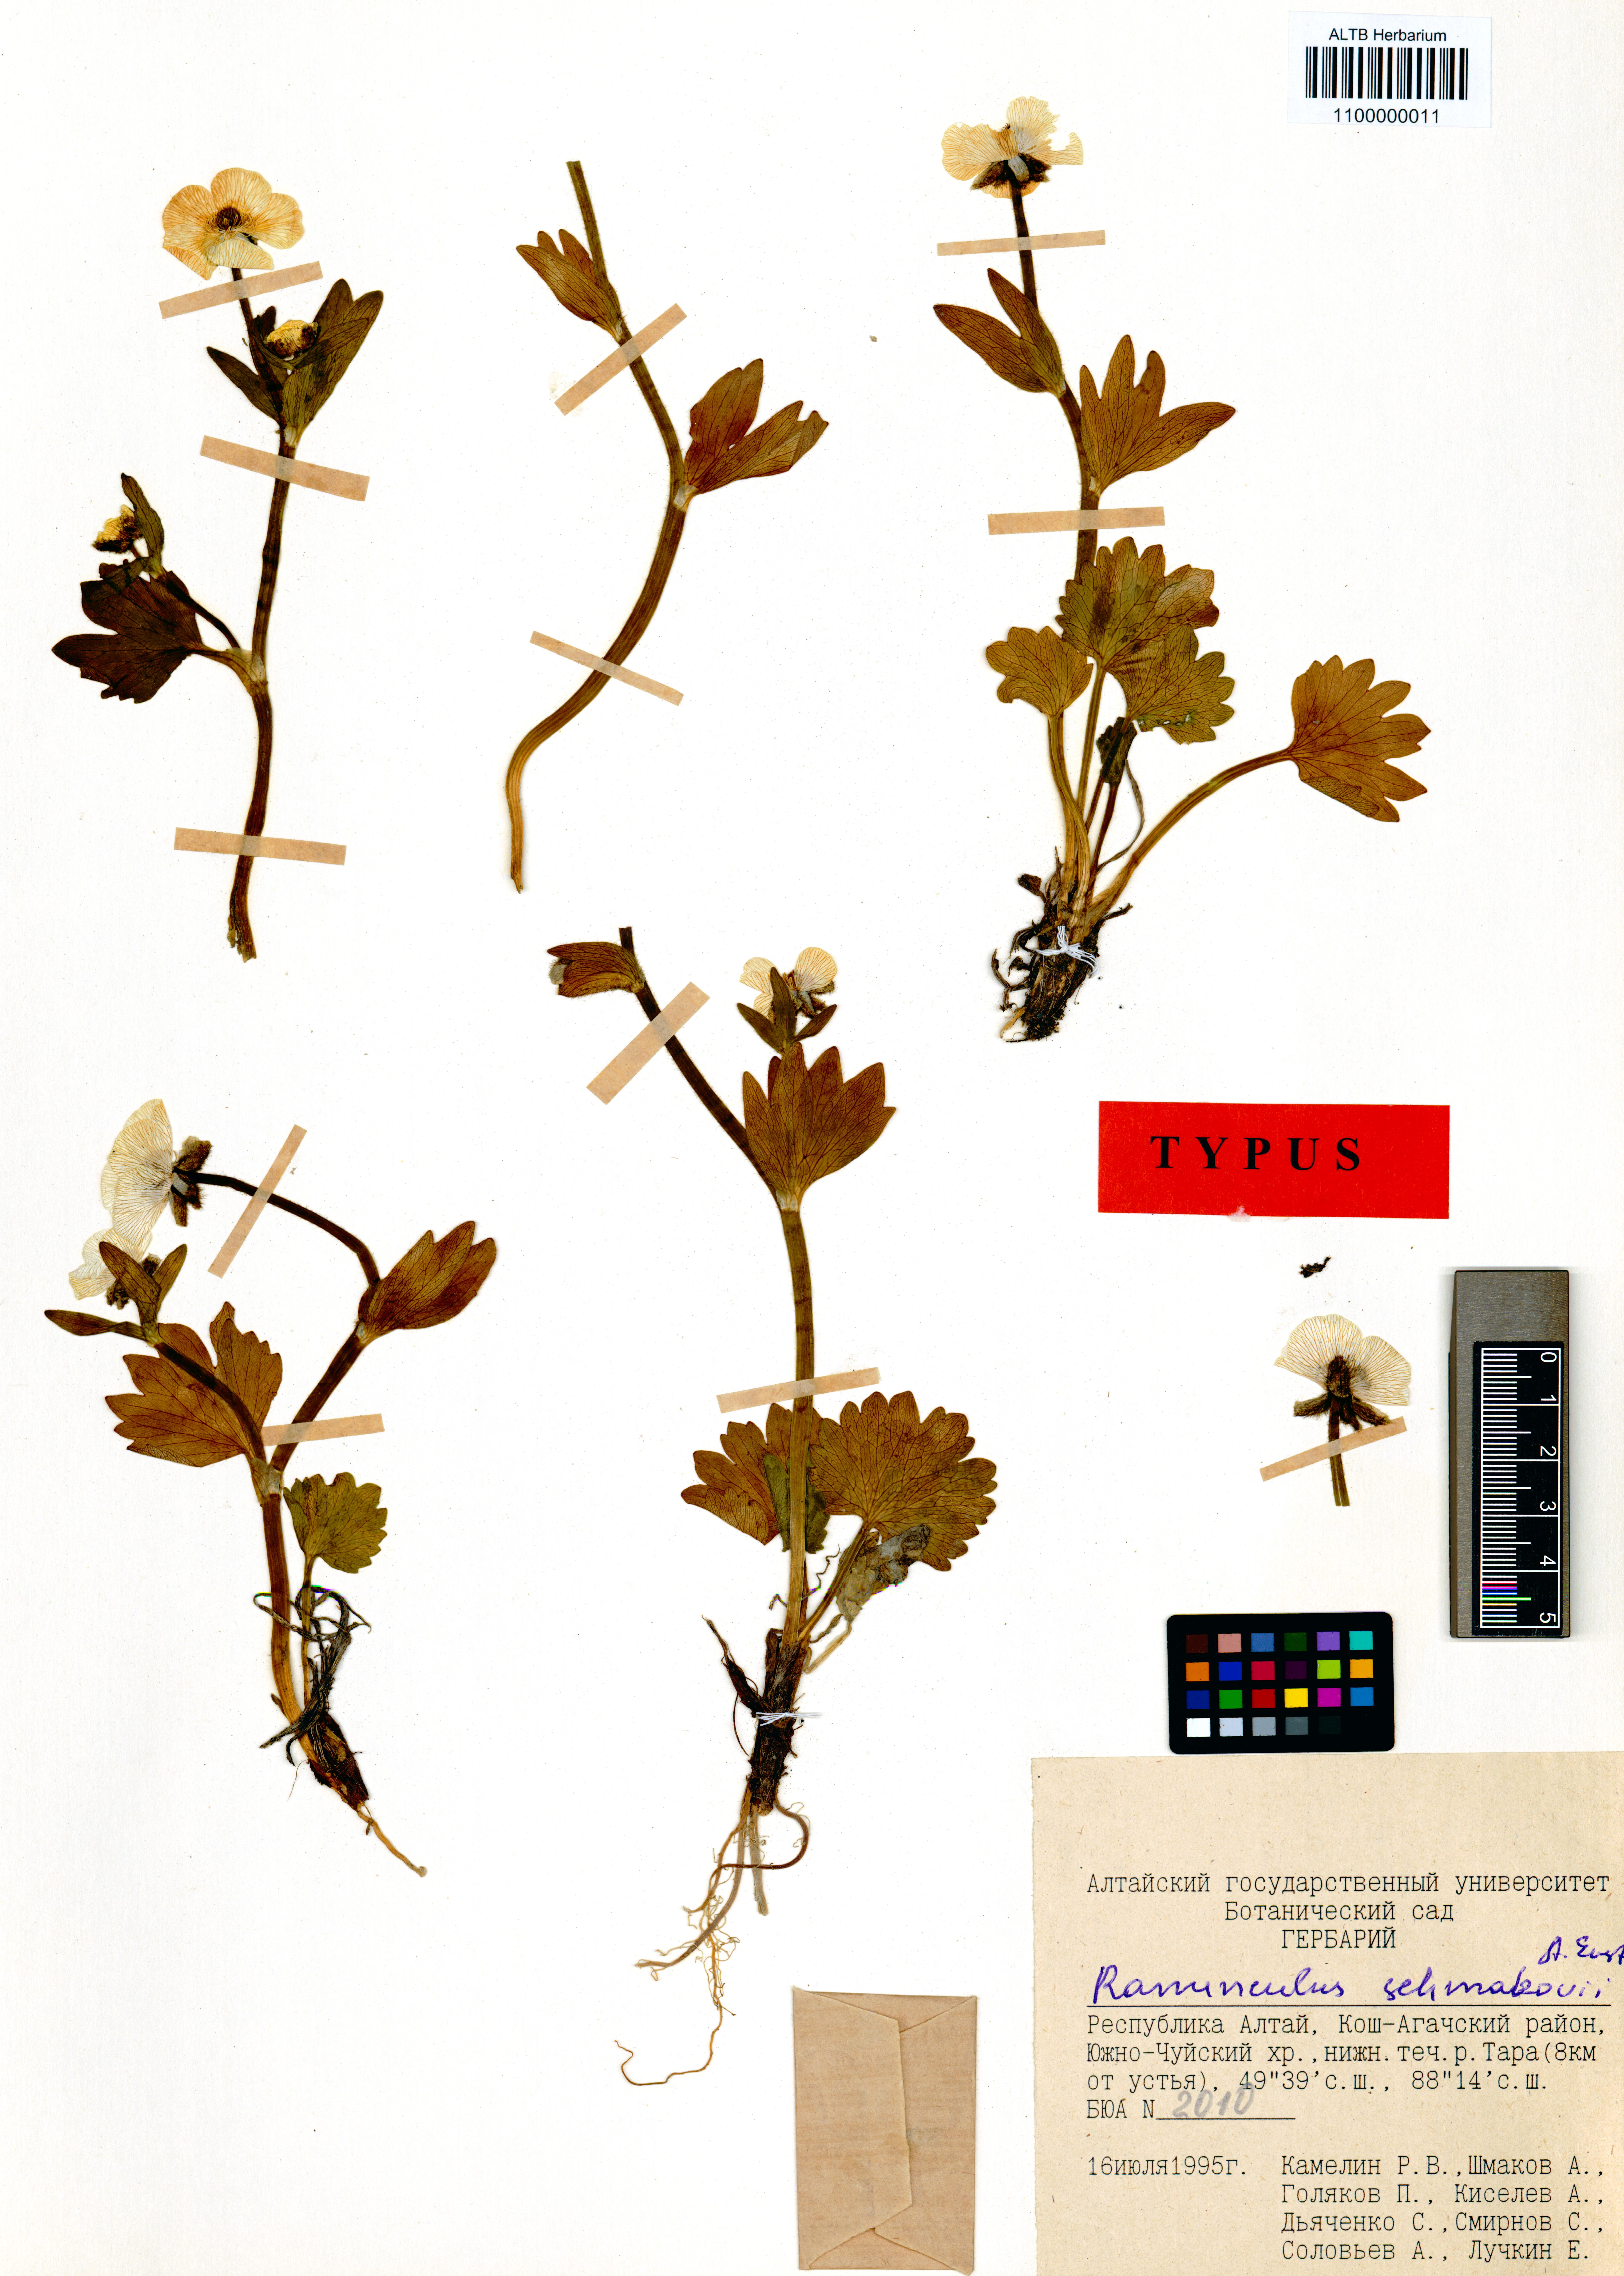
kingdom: Plantae
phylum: Tracheophyta
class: Magnoliopsida
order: Ranunculales
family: Ranunculaceae
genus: Ranunculus
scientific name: Ranunculus schmakovii
